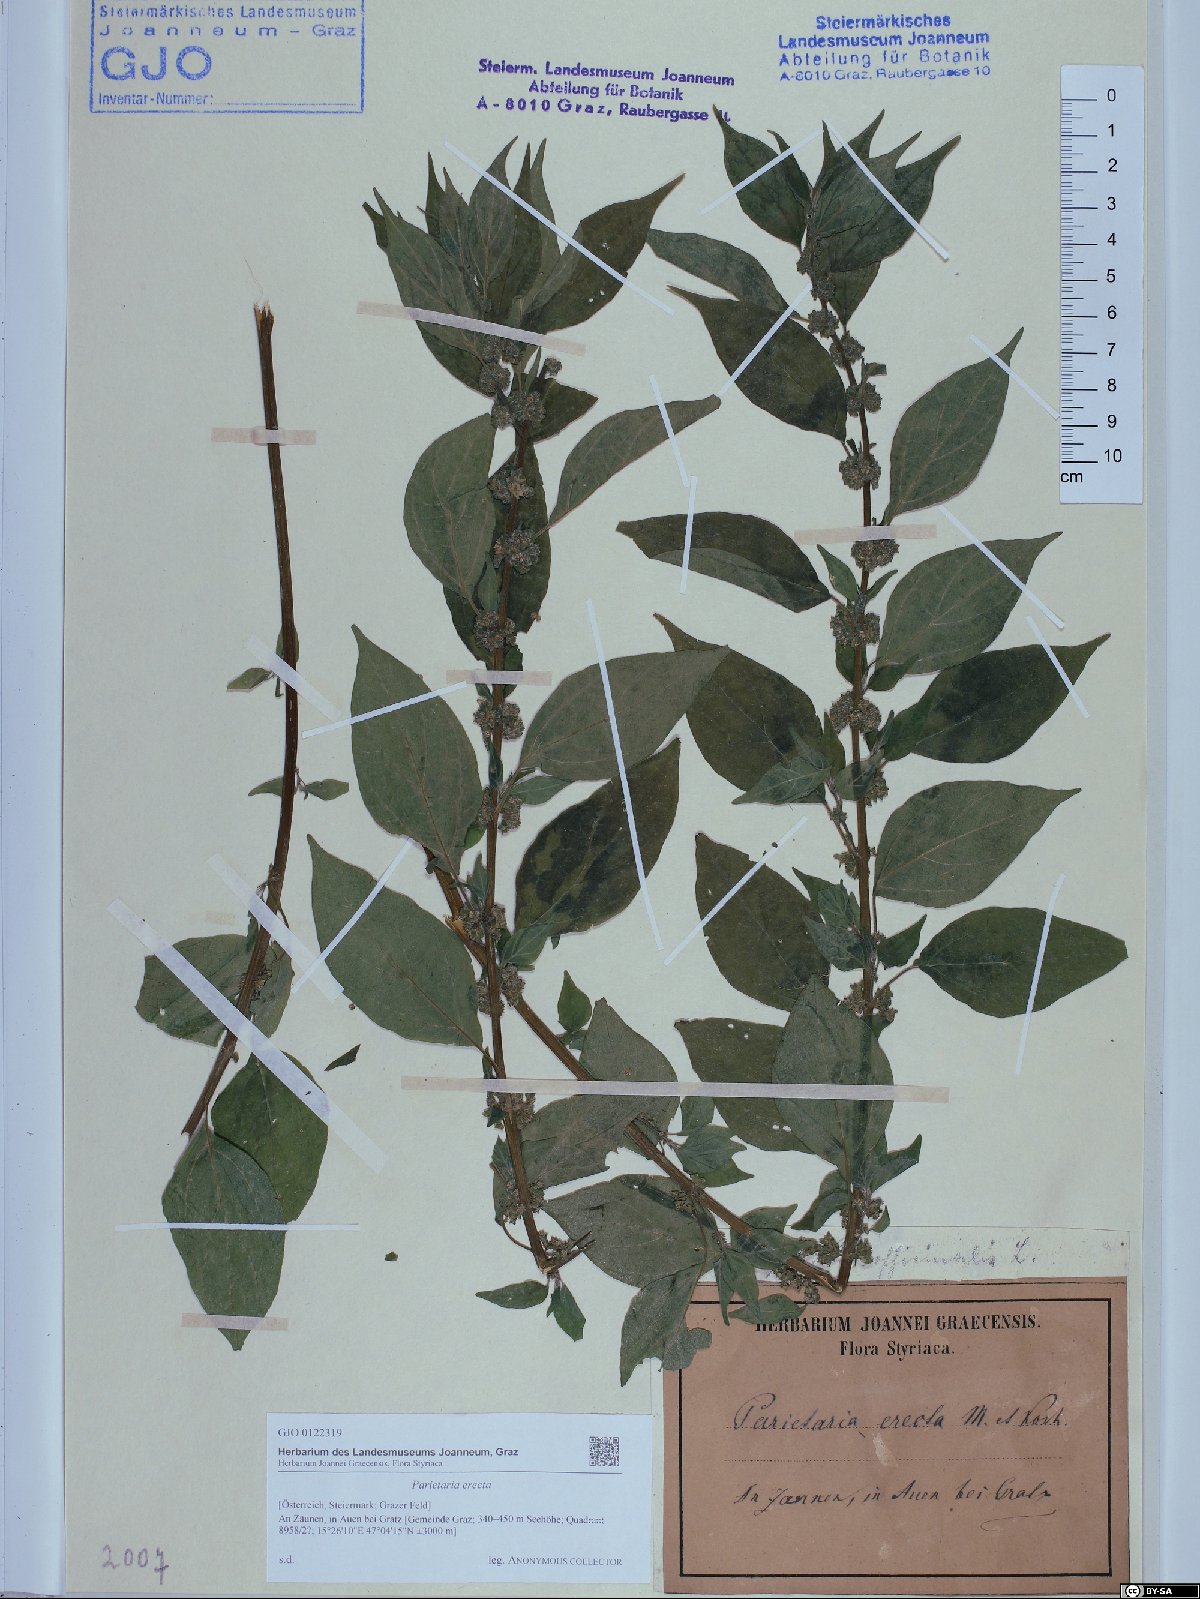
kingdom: Plantae
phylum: Tracheophyta
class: Magnoliopsida
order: Rosales
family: Urticaceae
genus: Parietaria
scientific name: Parietaria officinalis
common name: Eastern pellitory-of-the-wall
